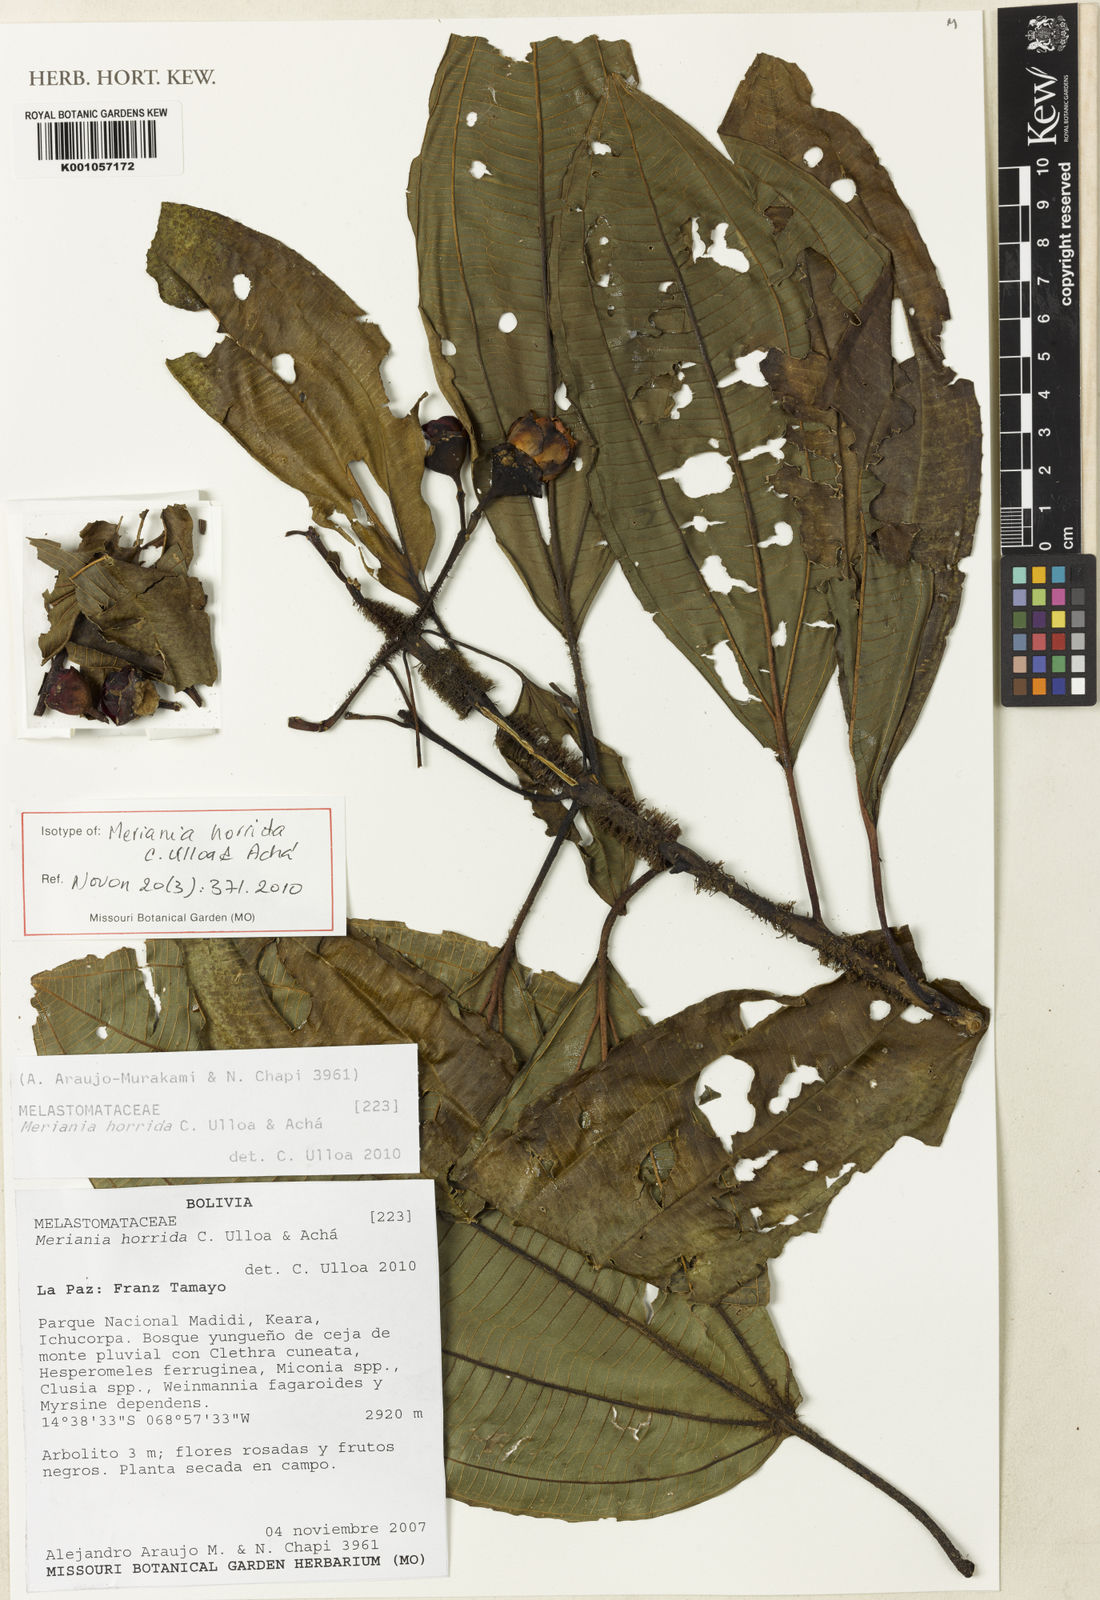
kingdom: Plantae
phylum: Tracheophyta
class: Magnoliopsida
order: Myrtales
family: Melastomataceae
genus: Meriania
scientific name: Meriania
